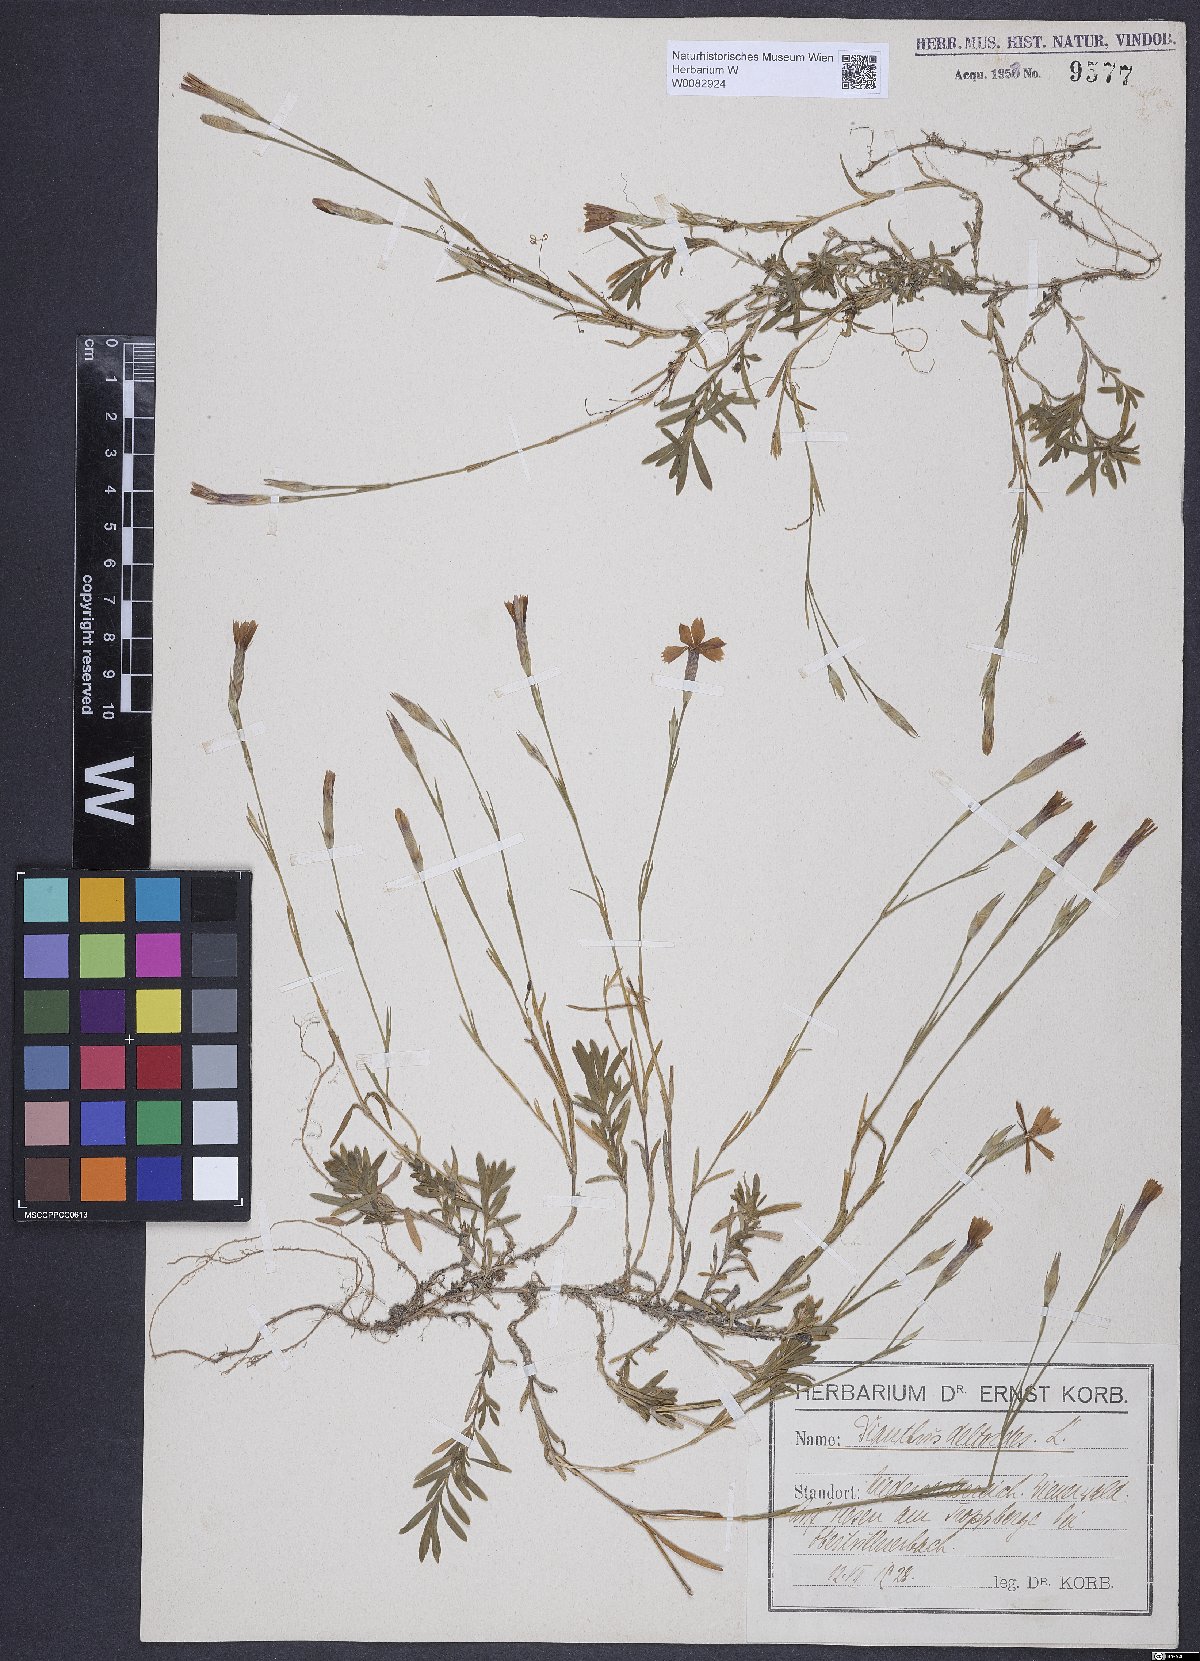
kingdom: Plantae
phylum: Tracheophyta
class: Magnoliopsida
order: Caryophyllales
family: Caryophyllaceae
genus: Dianthus
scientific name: Dianthus deltoides
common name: Maiden pink
